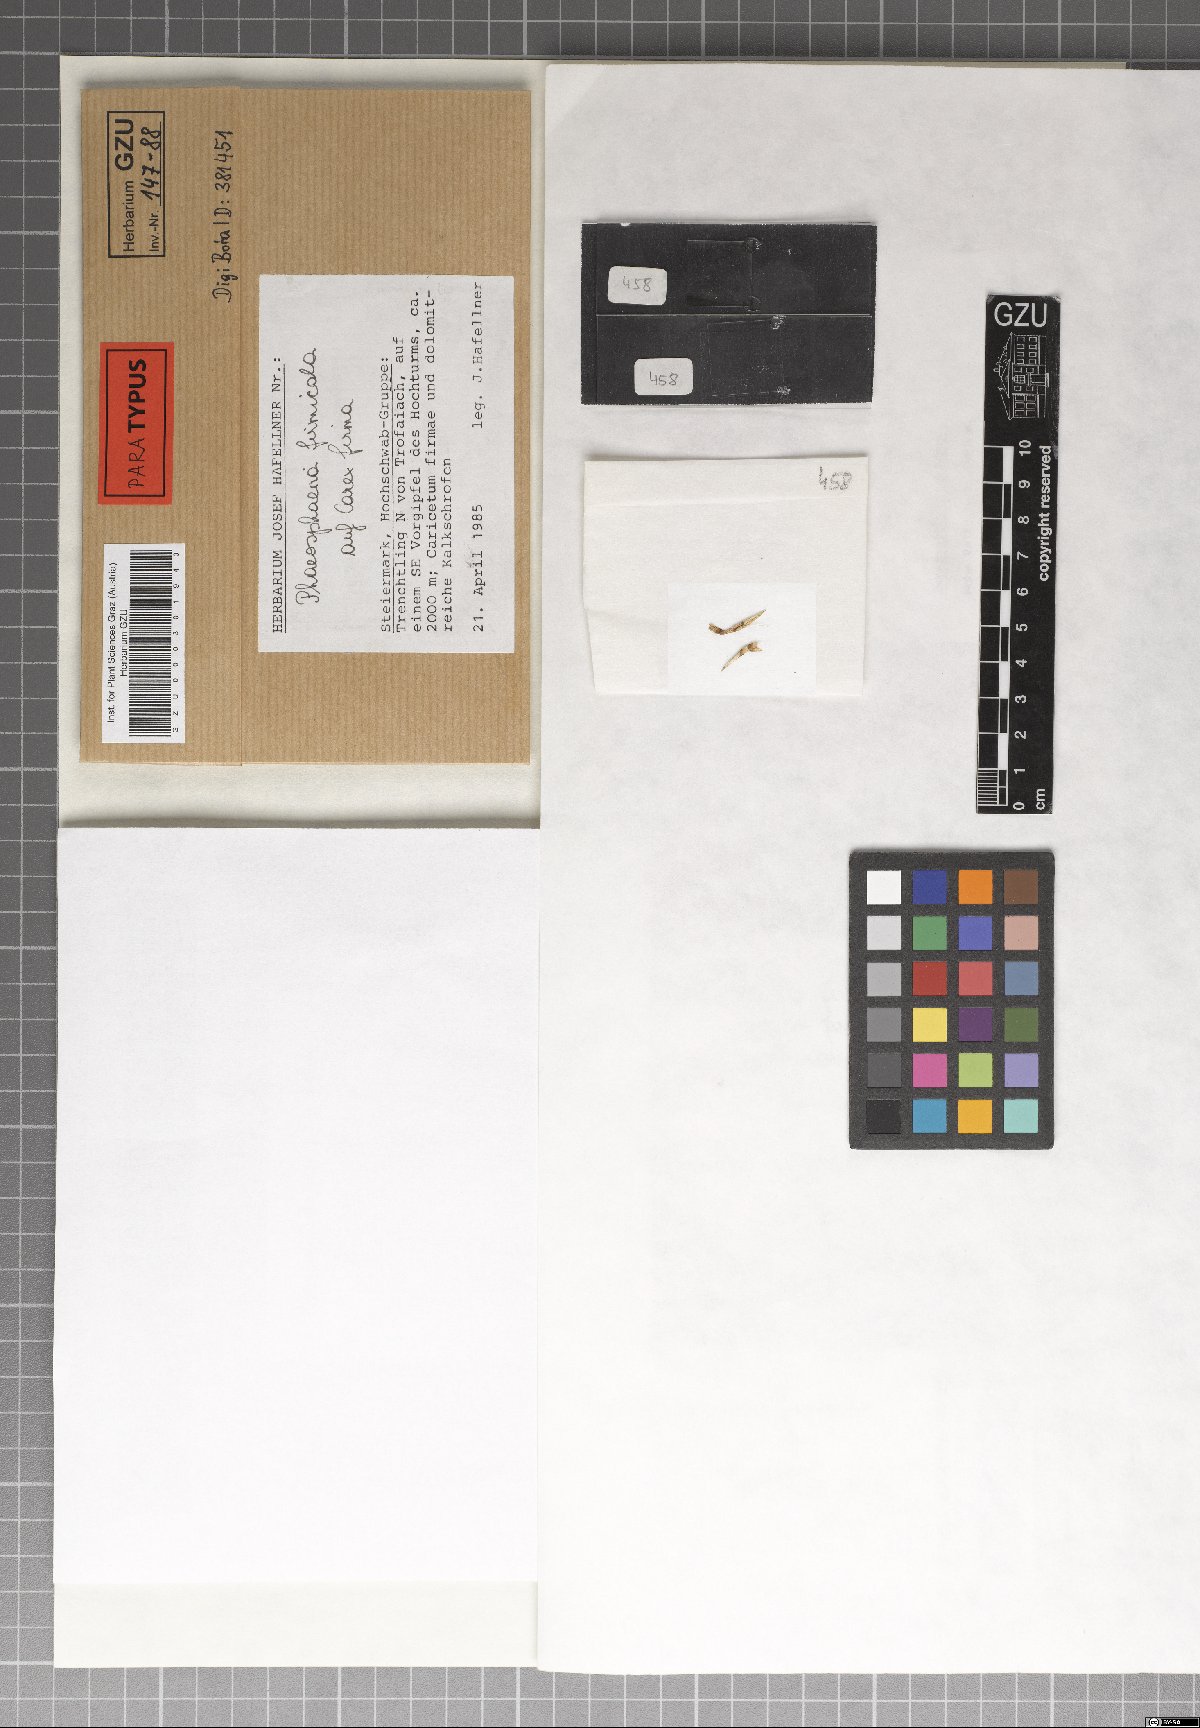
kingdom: Fungi
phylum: Ascomycota
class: Dothideomycetes
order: Pleosporales
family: Phaeosphaeriaceae
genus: Phaeosphaeria
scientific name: Phaeosphaeria firmicola
